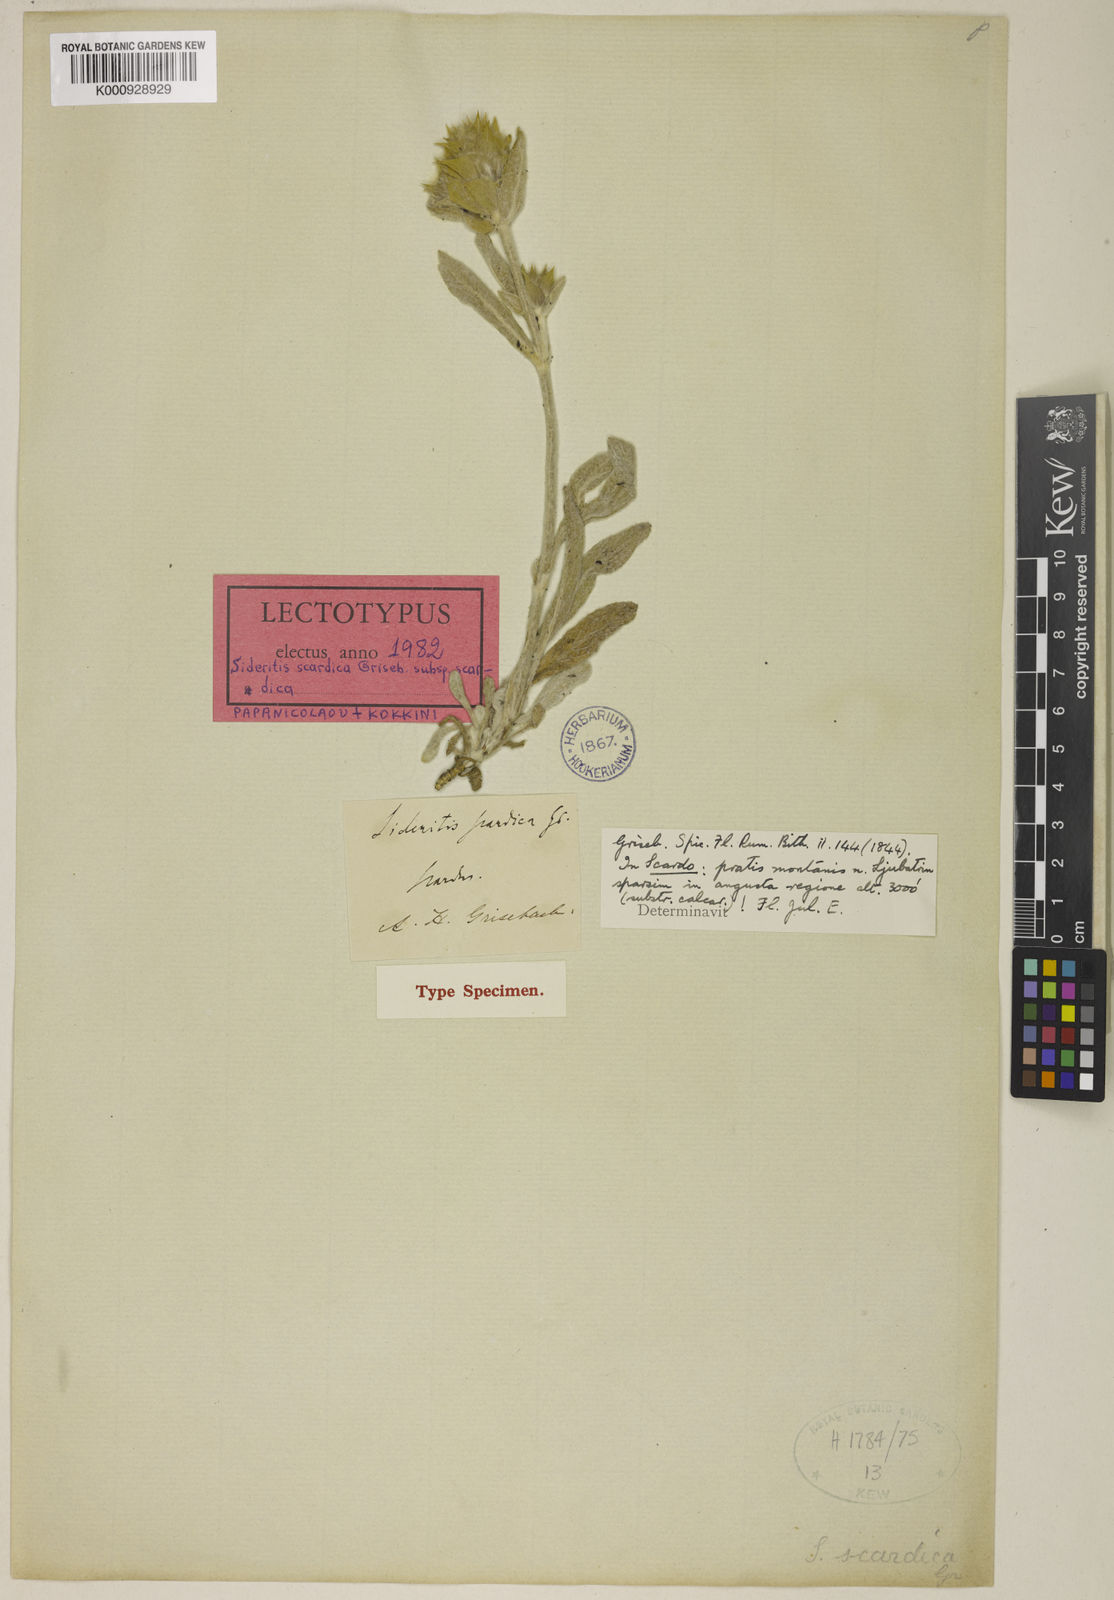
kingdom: Plantae
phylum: Tracheophyta
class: Magnoliopsida
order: Lamiales
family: Lamiaceae
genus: Sideritis
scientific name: Sideritis scardica
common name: Greek mountain tea
